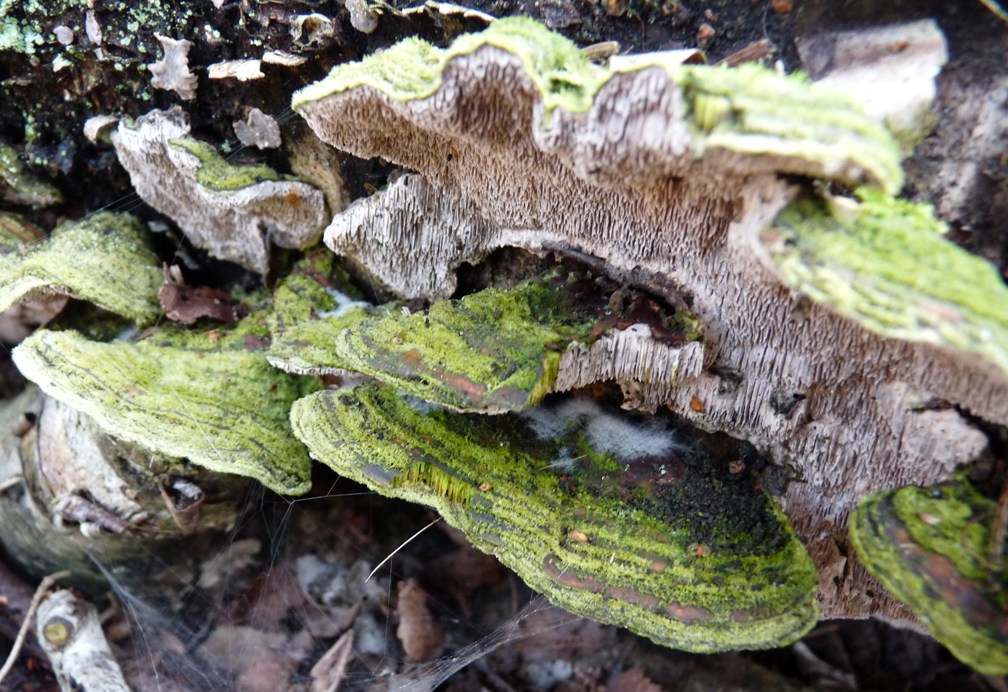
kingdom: Fungi
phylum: Basidiomycota
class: Agaricomycetes
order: Polyporales
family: Cerrenaceae
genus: Cerrena
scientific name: Cerrena unicolor
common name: ensfarvet læderporesvamp
